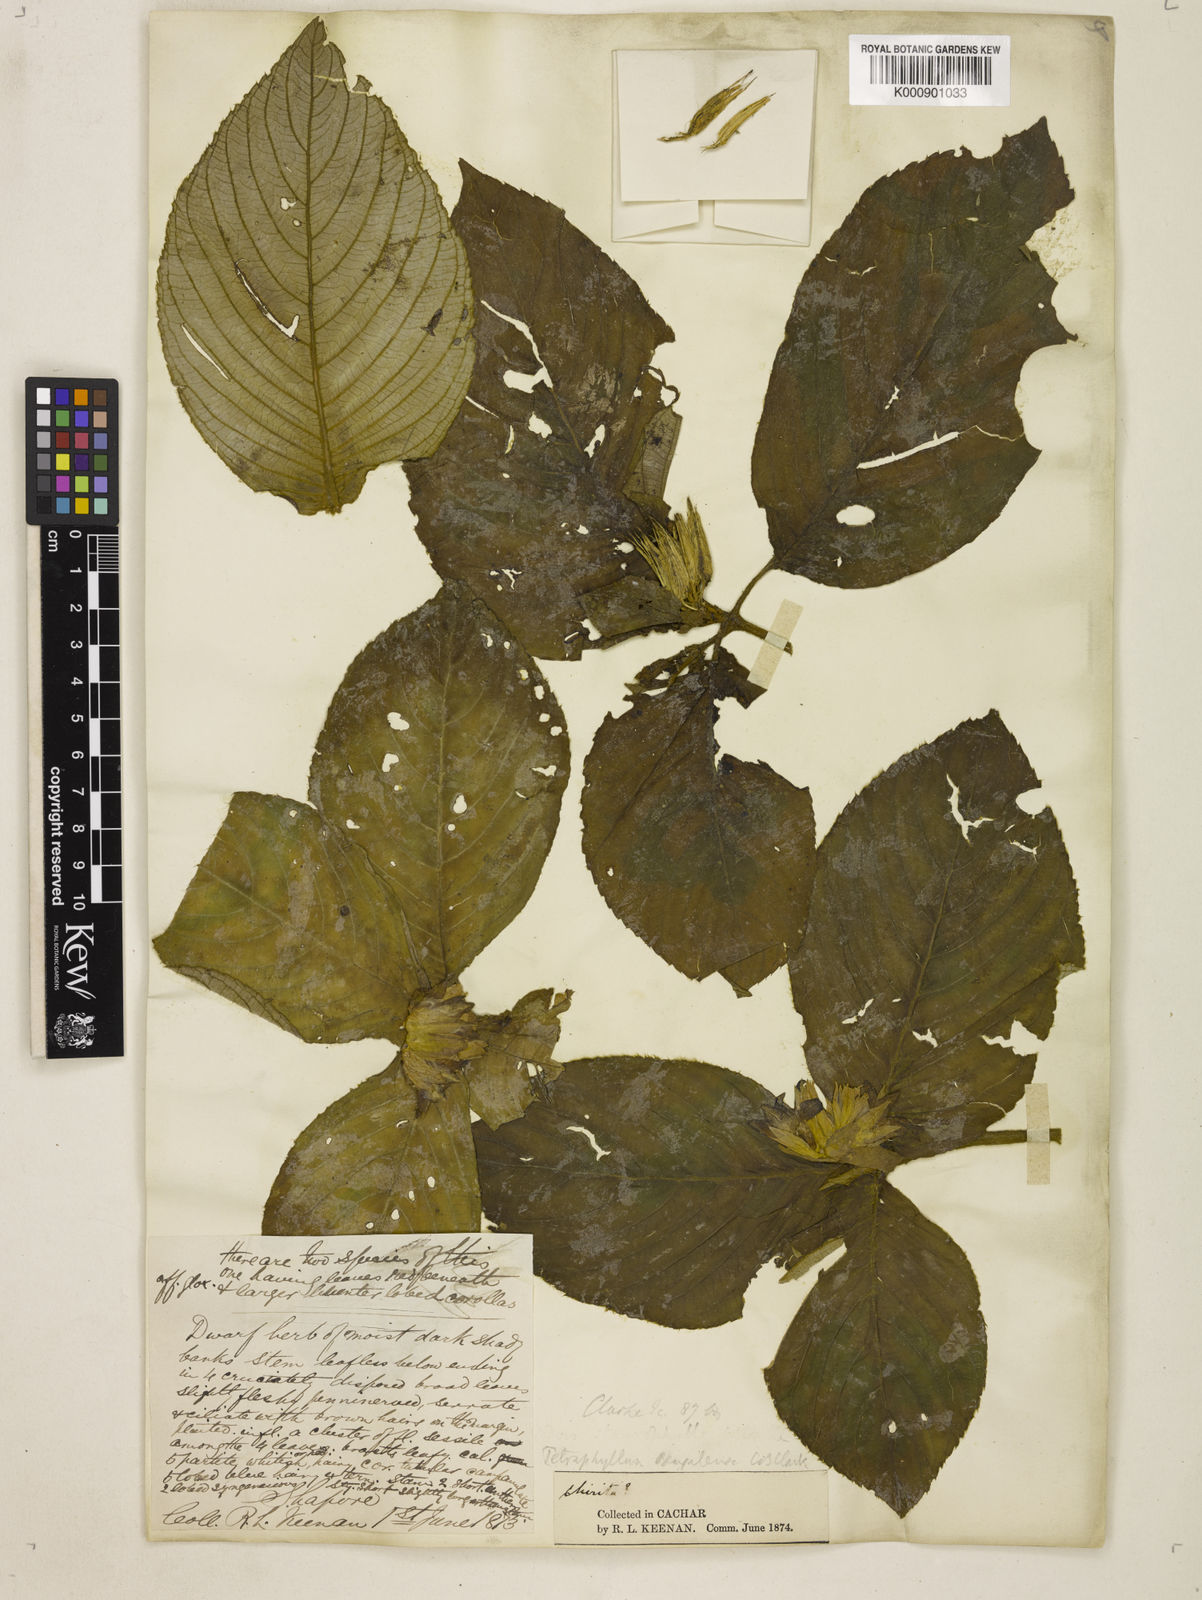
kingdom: Plantae
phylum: Tracheophyta
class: Magnoliopsida
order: Lamiales
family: Gesneriaceae
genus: Tetraphylloides
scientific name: Tetraphylloides bengalensis
